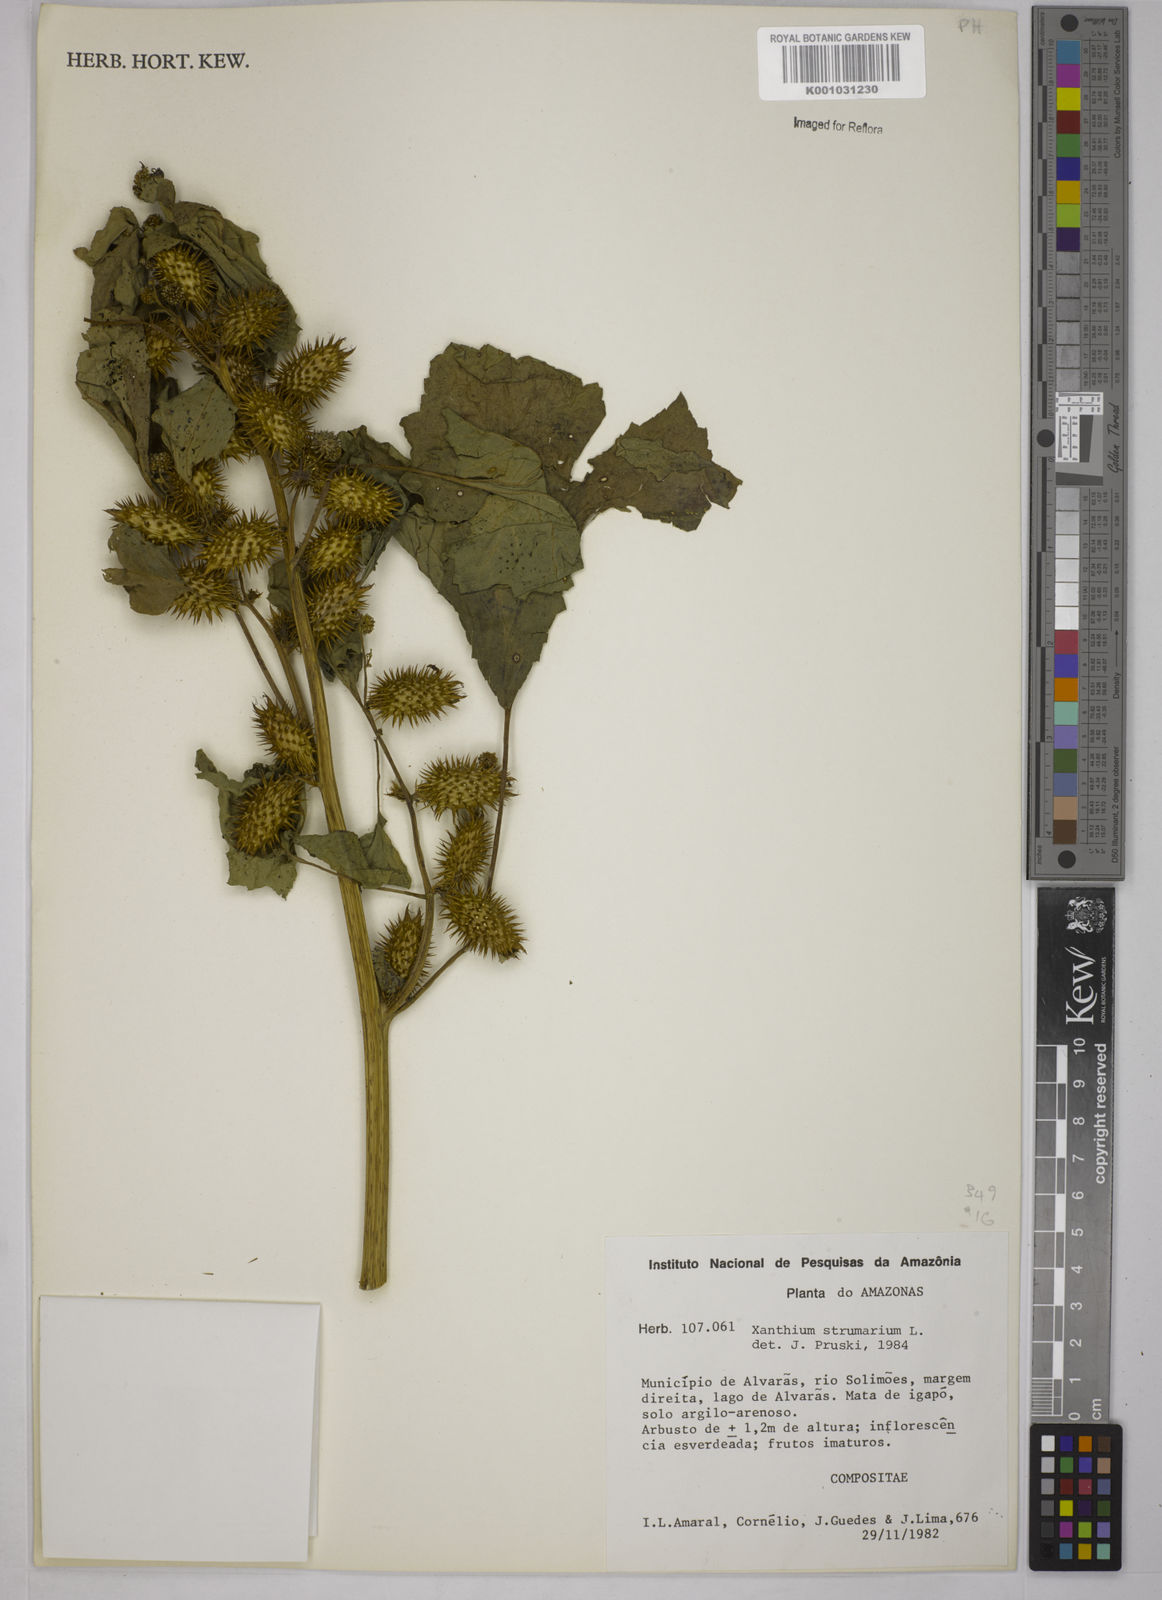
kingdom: Plantae
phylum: Tracheophyta
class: Magnoliopsida
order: Asterales
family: Asteraceae
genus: Xanthium
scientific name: Xanthium strumarium
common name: Rough cocklebur
